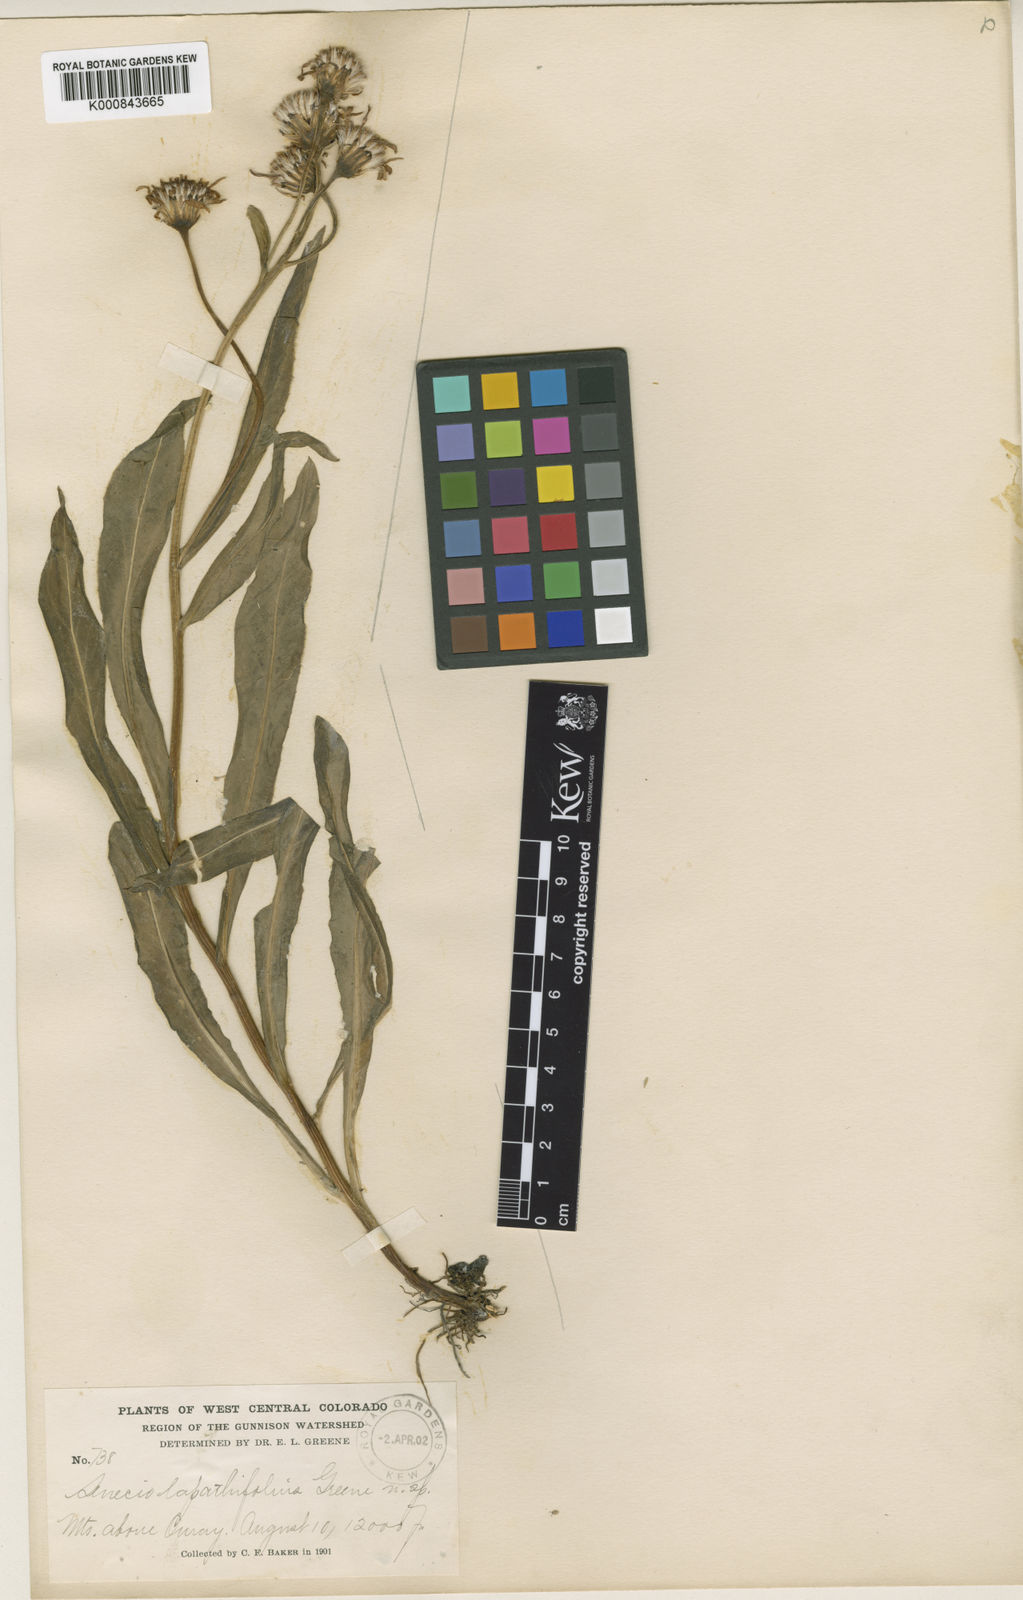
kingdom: Plantae
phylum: Tracheophyta
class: Magnoliopsida
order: Asterales
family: Asteraceae
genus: Senecio
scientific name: Senecio crassulus
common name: Mountain-meadow butterweed
